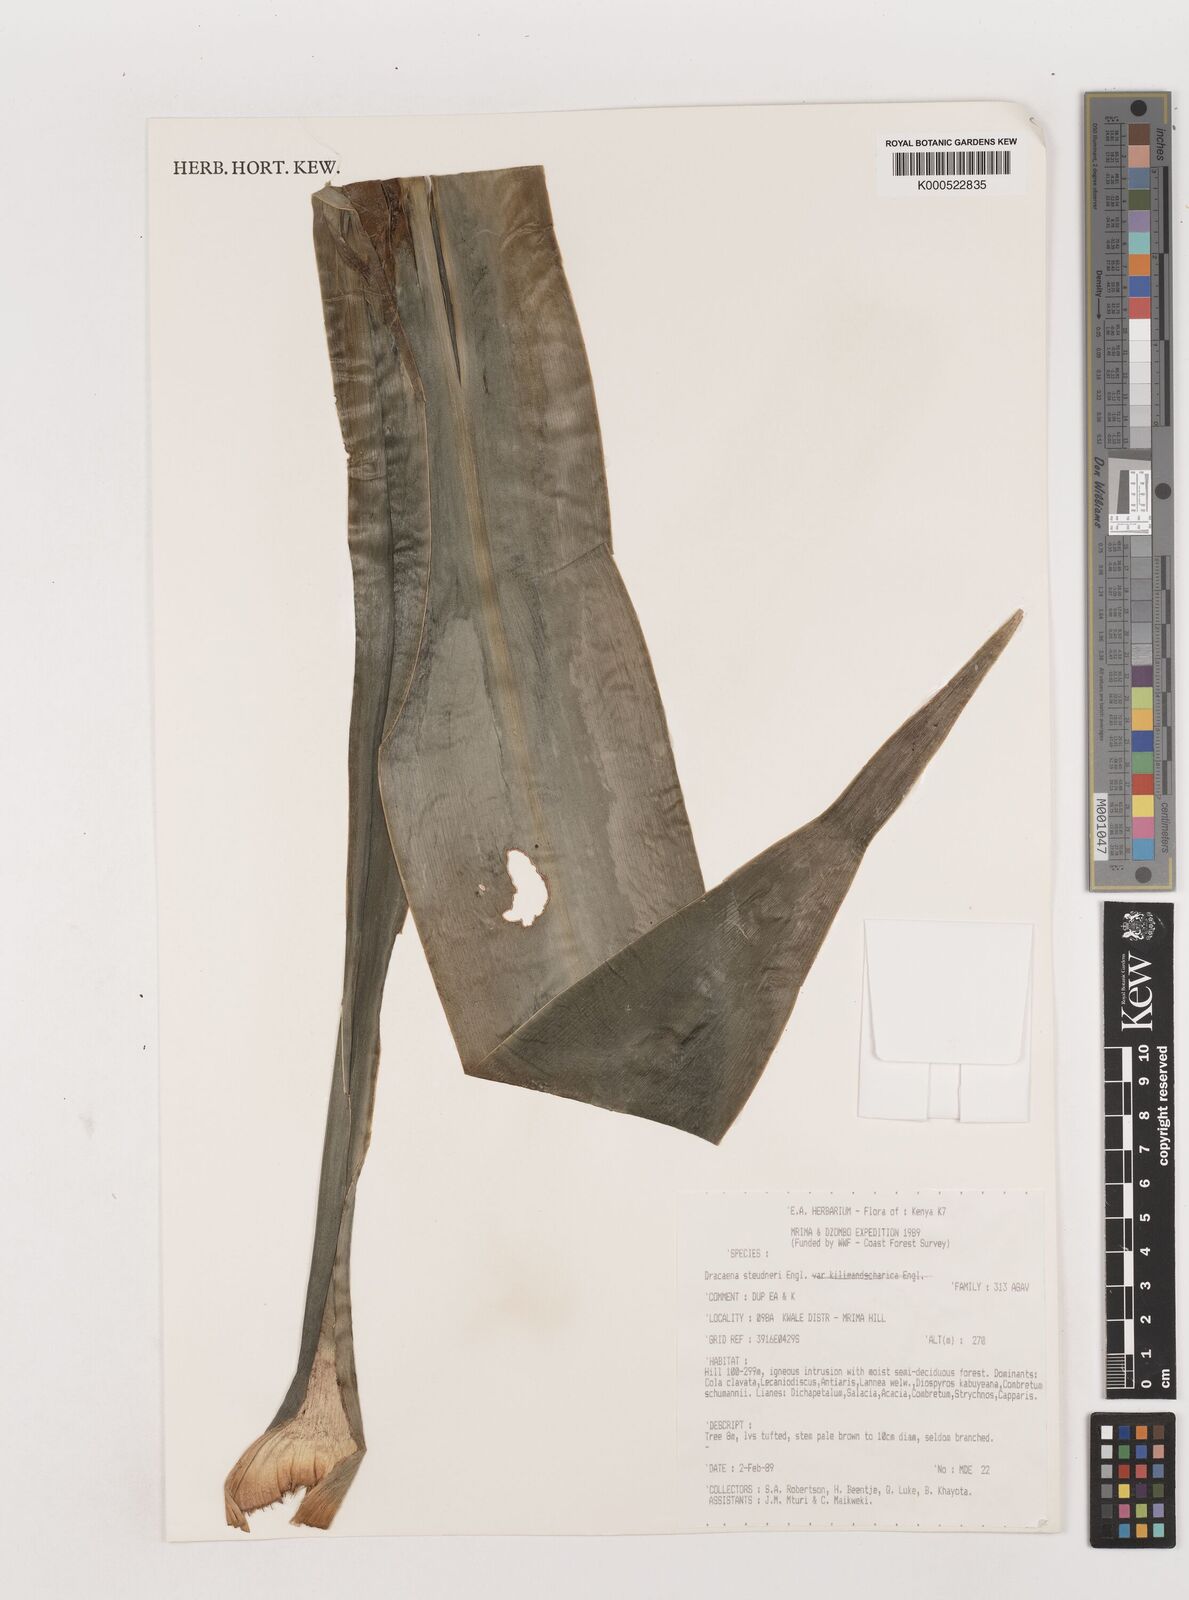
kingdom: Plantae
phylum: Tracheophyta
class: Liliopsida
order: Asparagales
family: Asparagaceae
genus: Dracaena
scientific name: Dracaena steudneri
